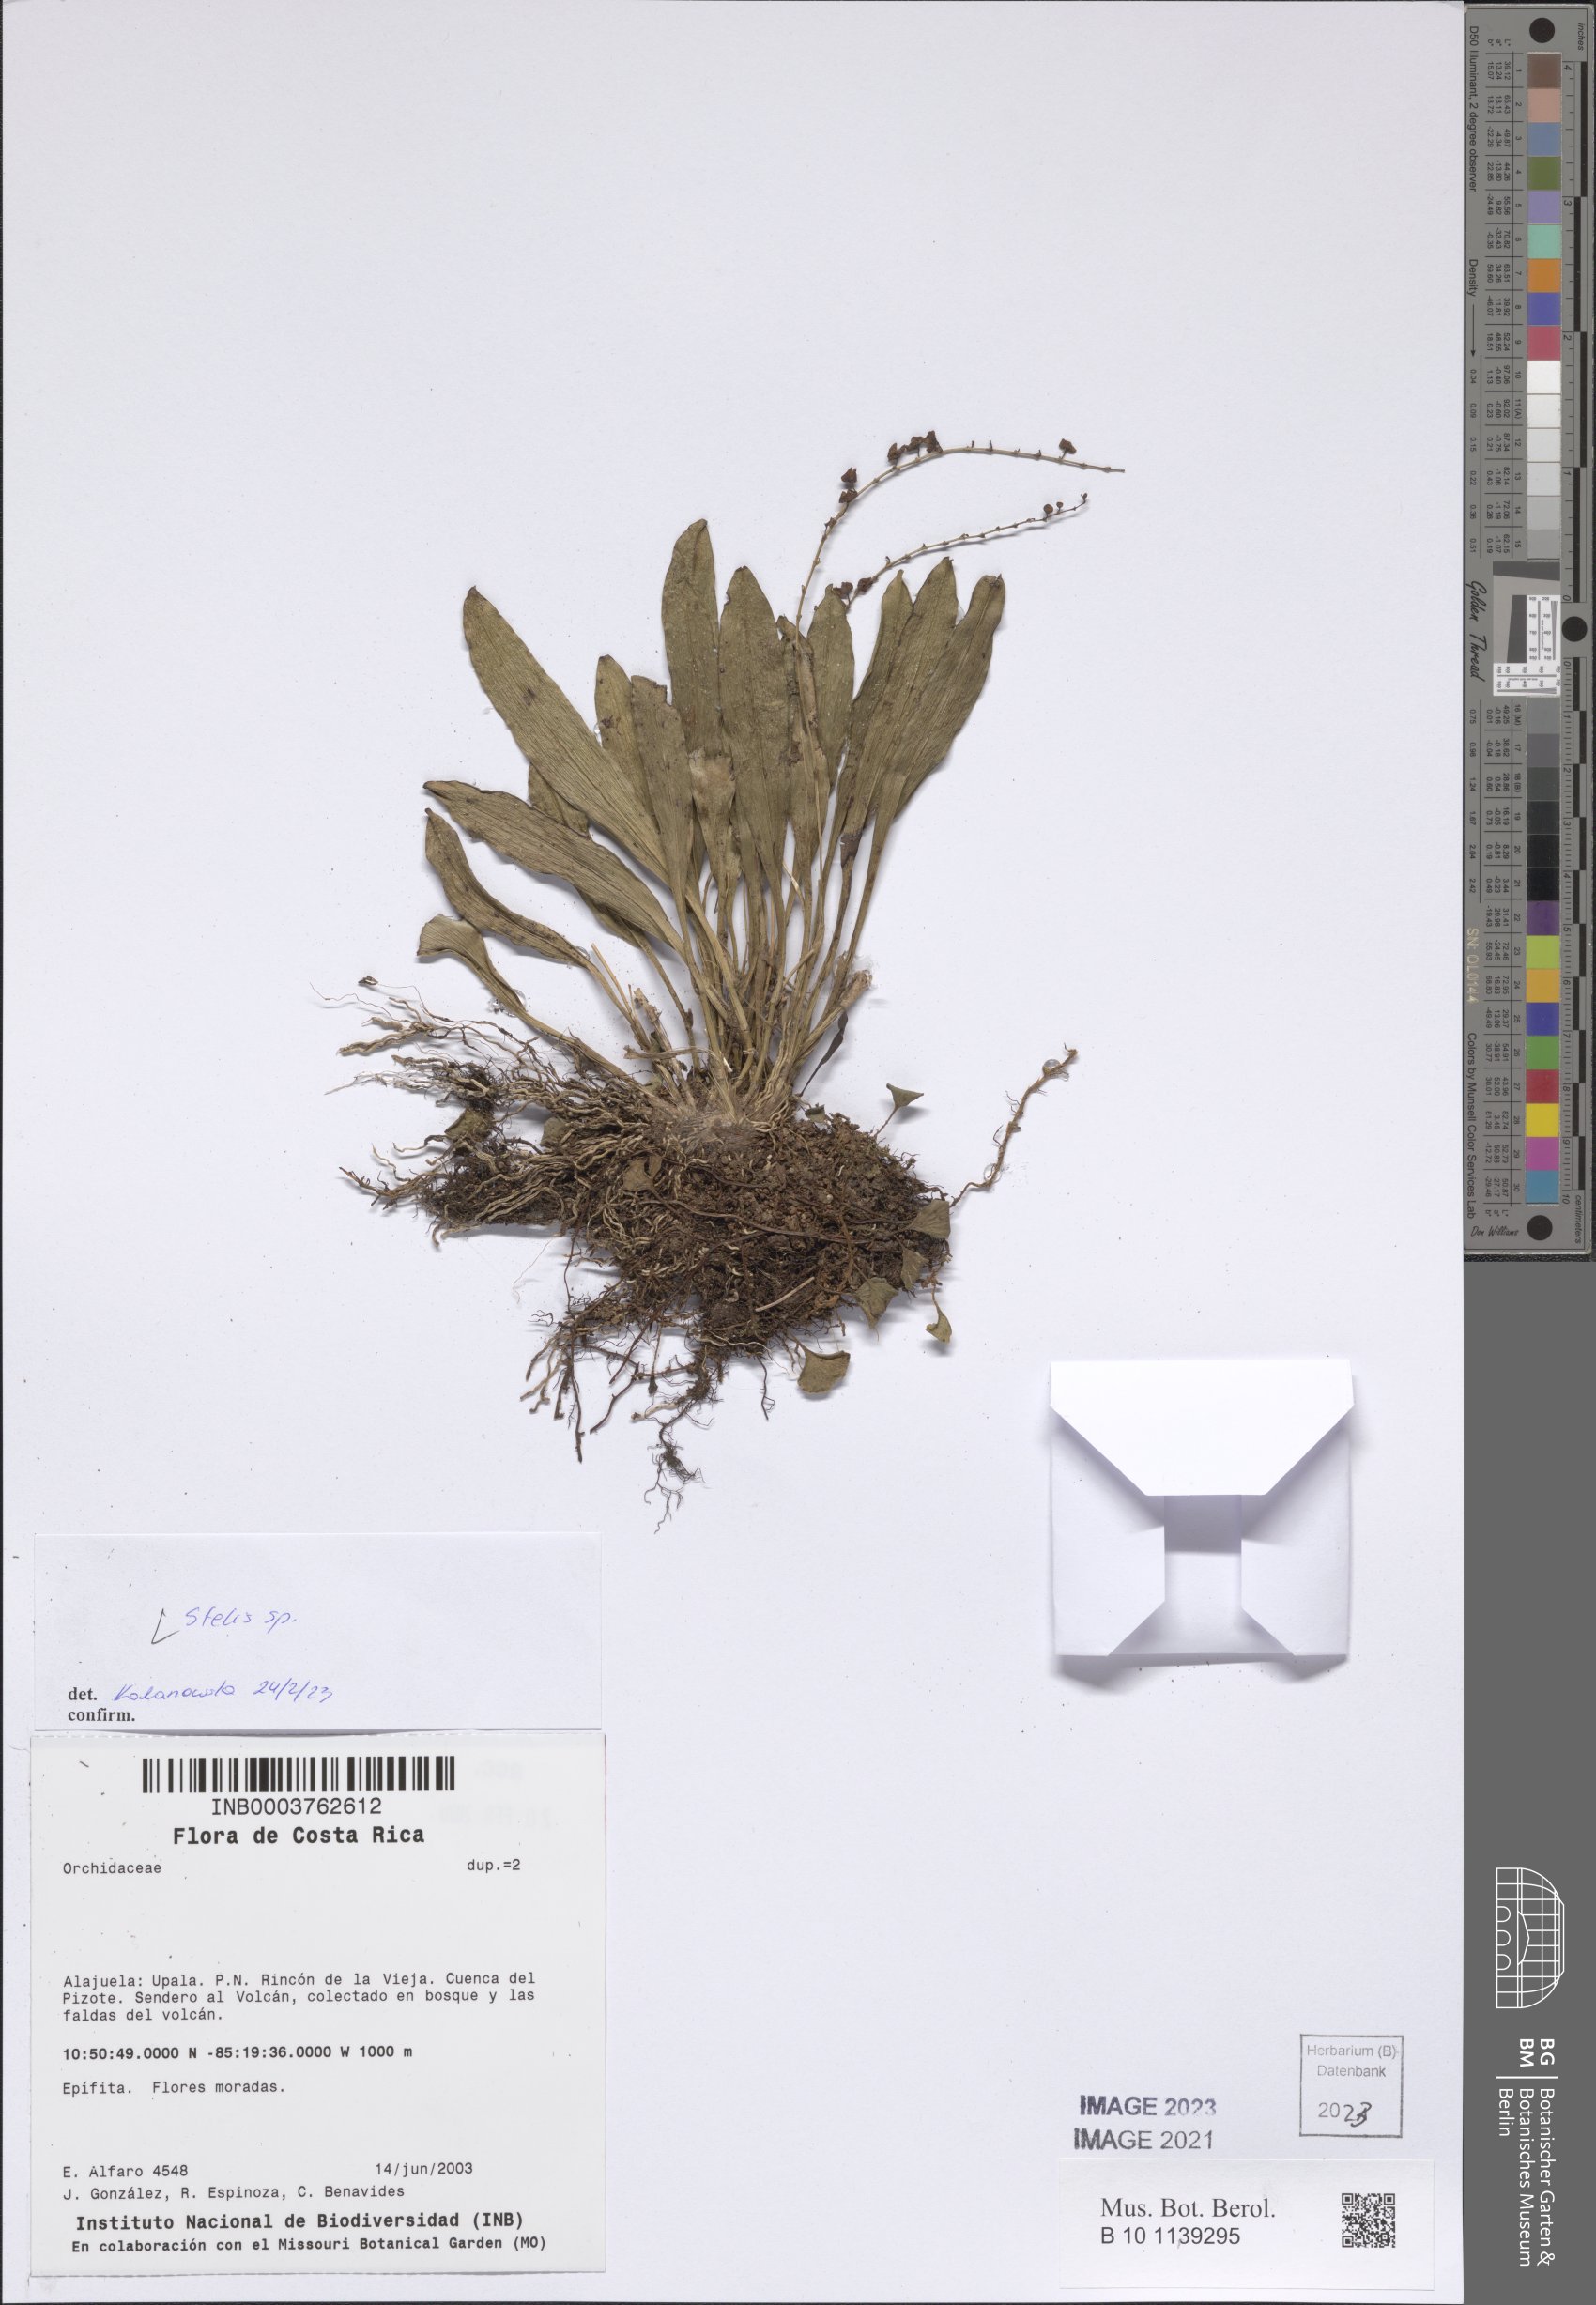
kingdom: Plantae
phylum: Tracheophyta
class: Liliopsida
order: Asparagales
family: Orchidaceae
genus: Stelis
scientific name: Stelis
